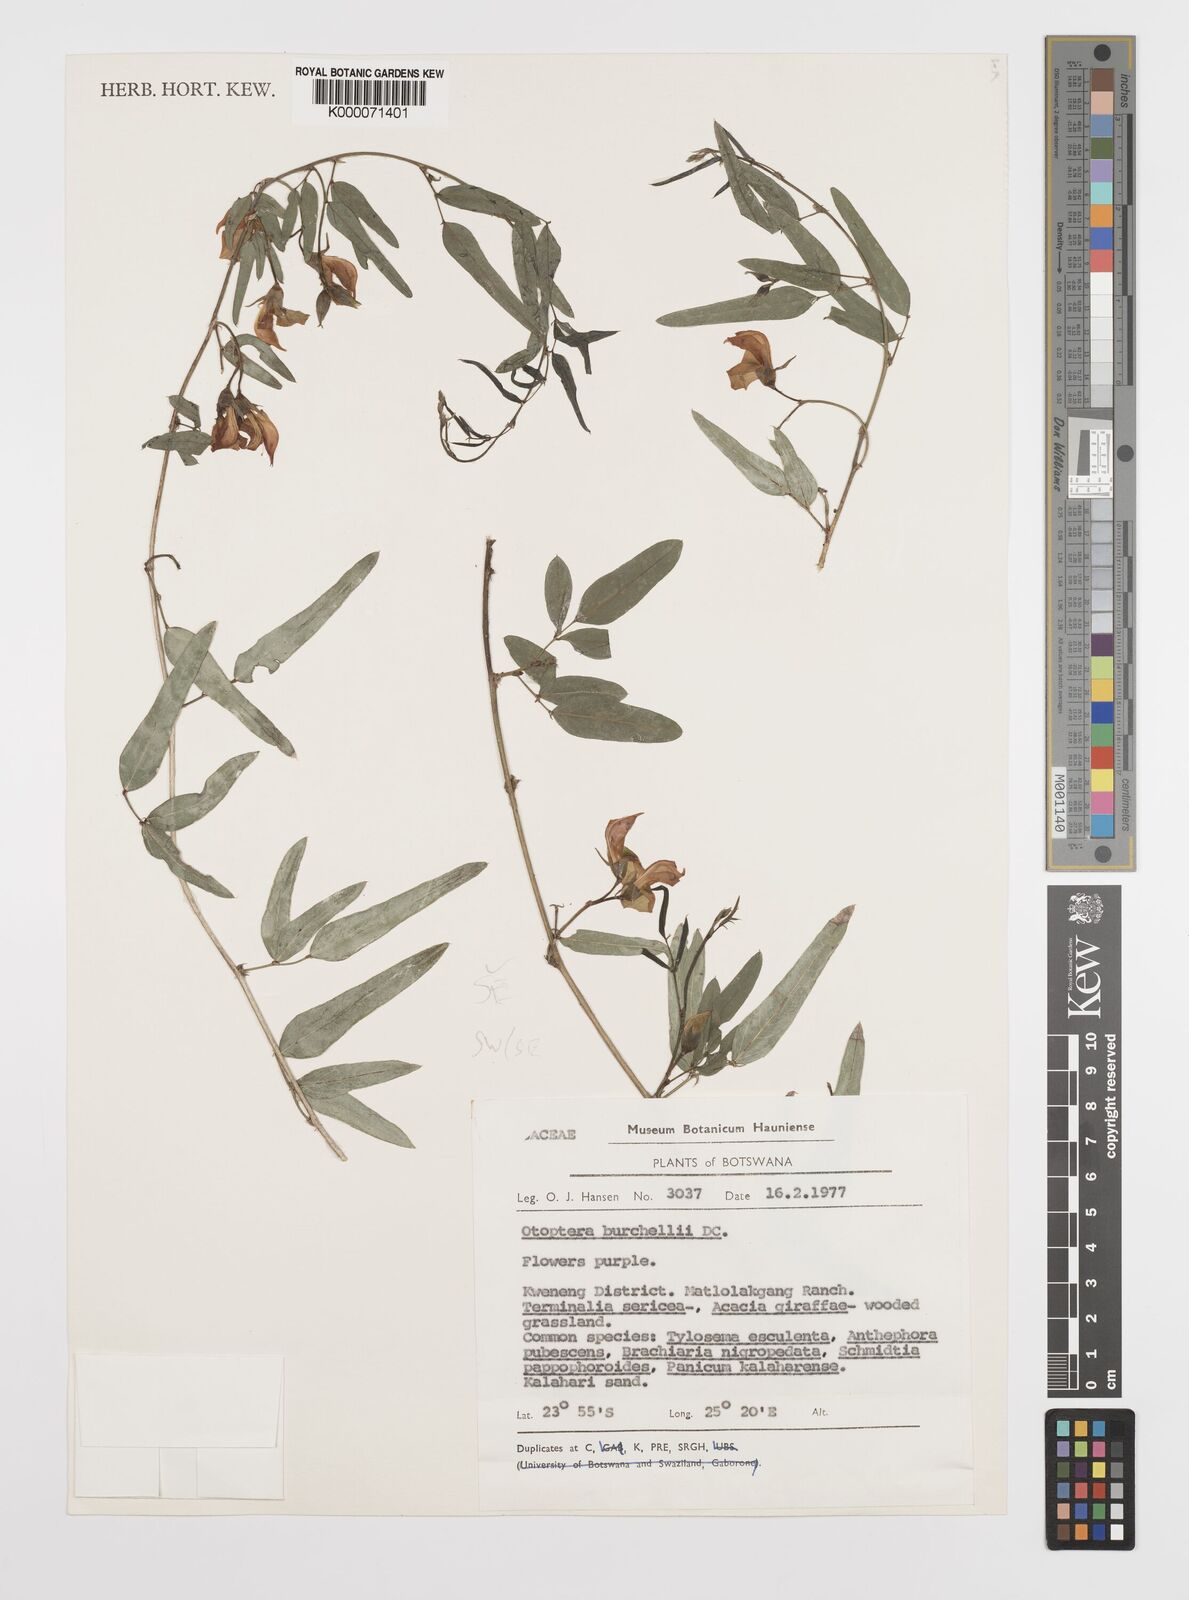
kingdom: Plantae
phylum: Tracheophyta
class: Magnoliopsida
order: Fabales
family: Fabaceae
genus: Otoptera
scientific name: Otoptera burchellii
